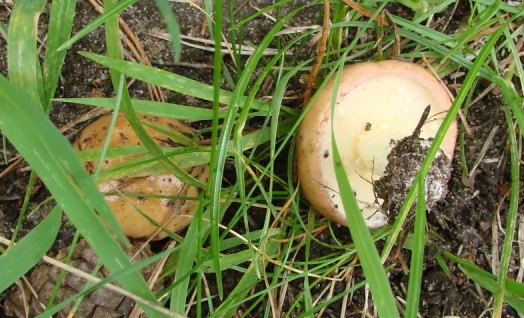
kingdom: Fungi
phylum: Basidiomycota
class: Agaricomycetes
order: Boletales
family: Suillaceae
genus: Suillus
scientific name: Suillus granulatus
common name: kornet slimrørhat
